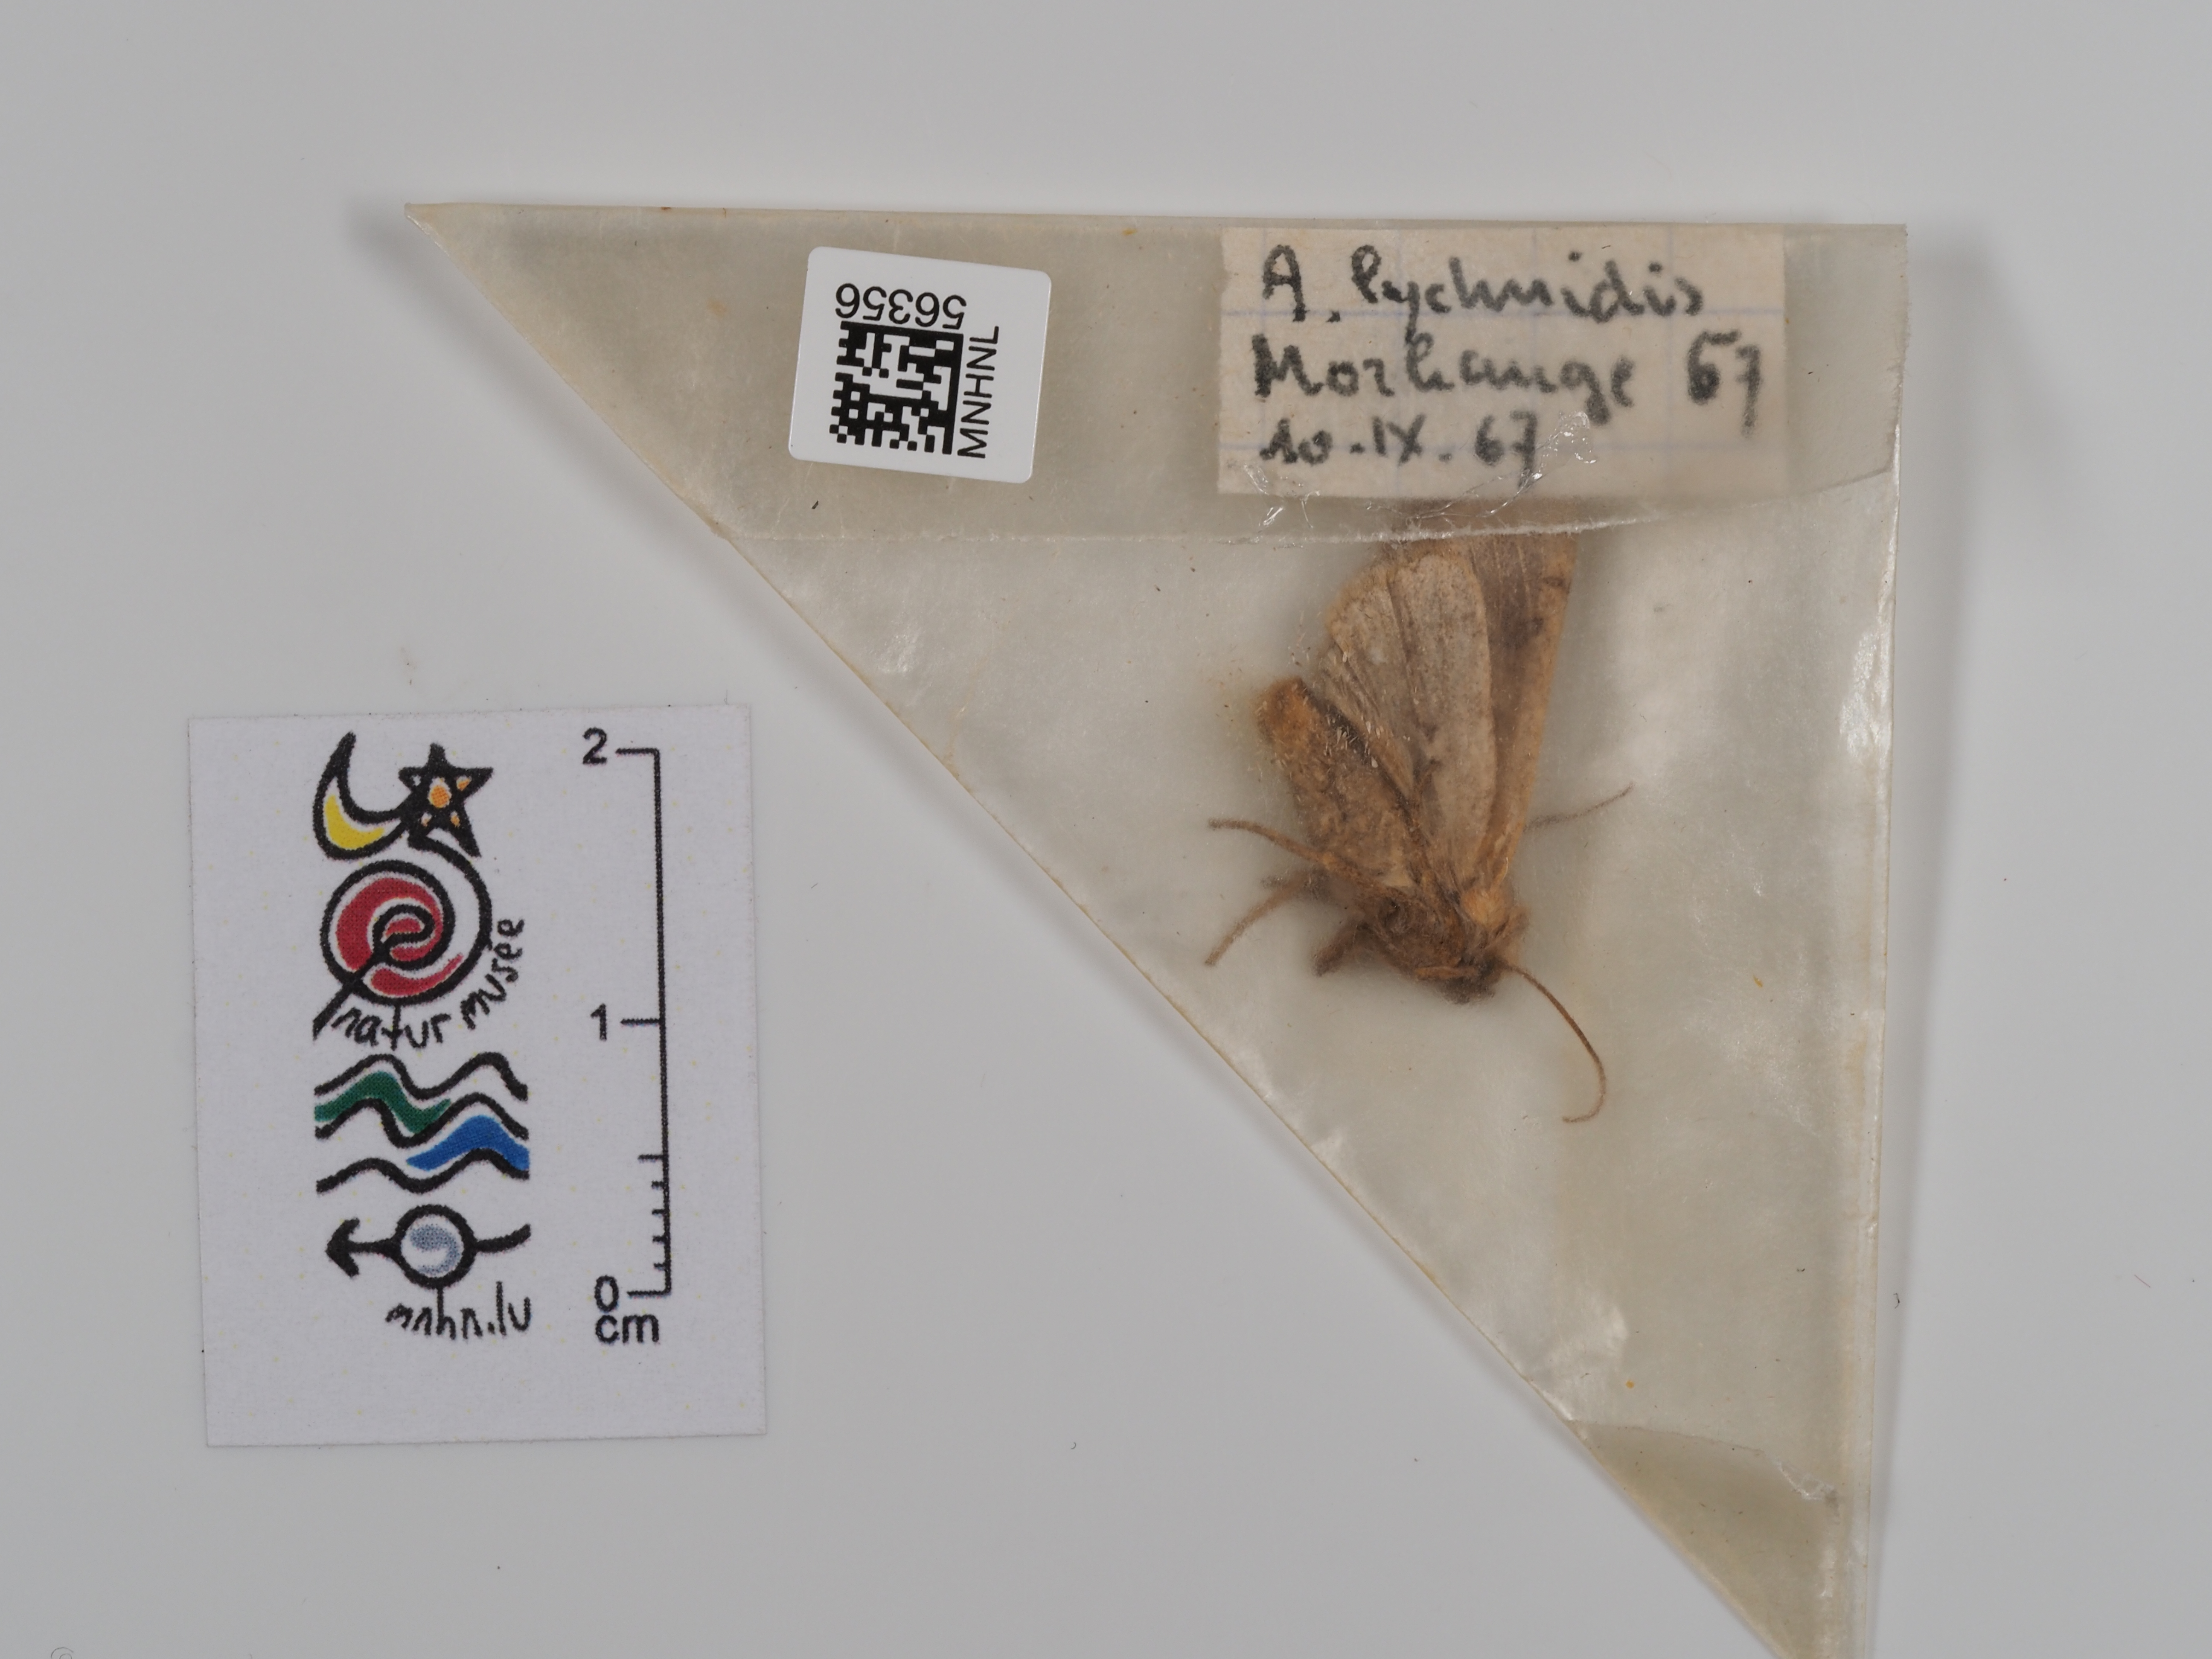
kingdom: Animalia
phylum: Arthropoda
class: Insecta
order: Lepidoptera
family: Noctuidae
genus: Agrochola
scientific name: Agrochola lychnidis
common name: Beaded chestnut
